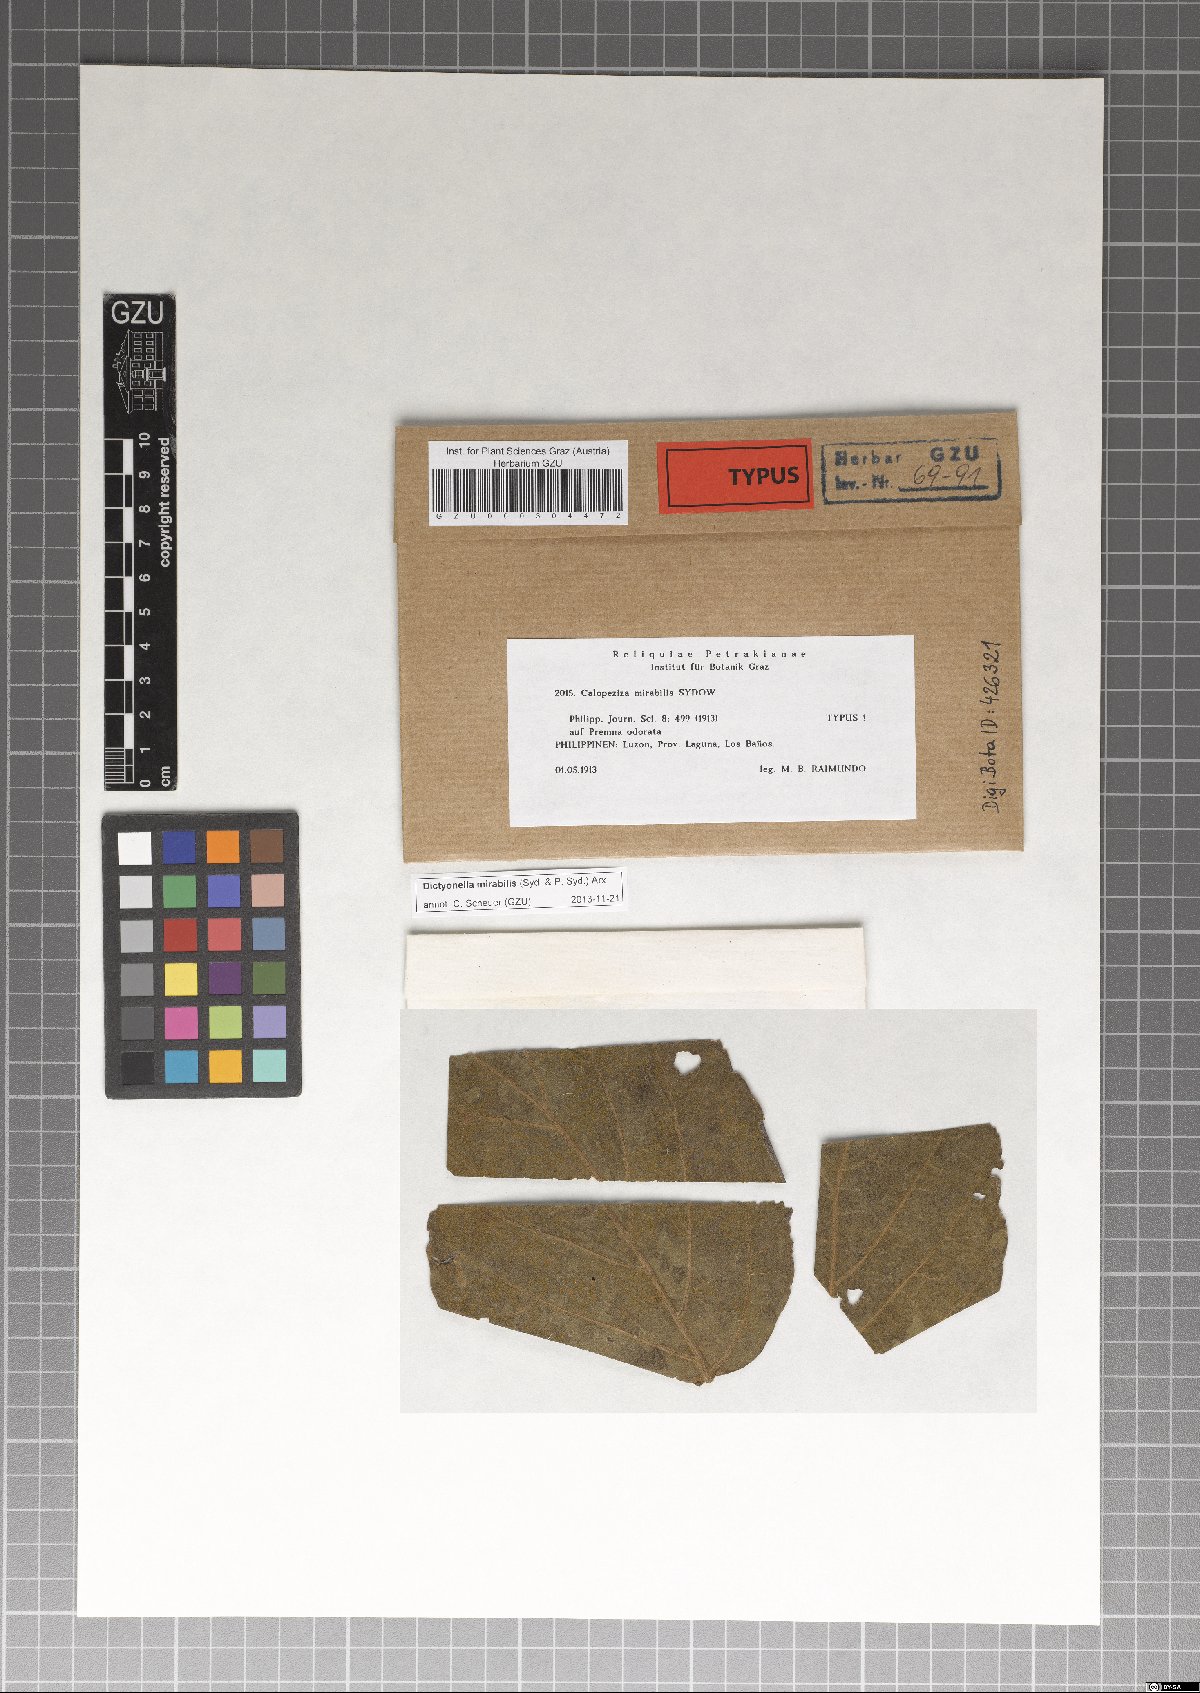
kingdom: Fungi
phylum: Ascomycota
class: Dothideomycetes
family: Saccardiaceae
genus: Dictyonella
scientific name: Dictyonella mirabilis
